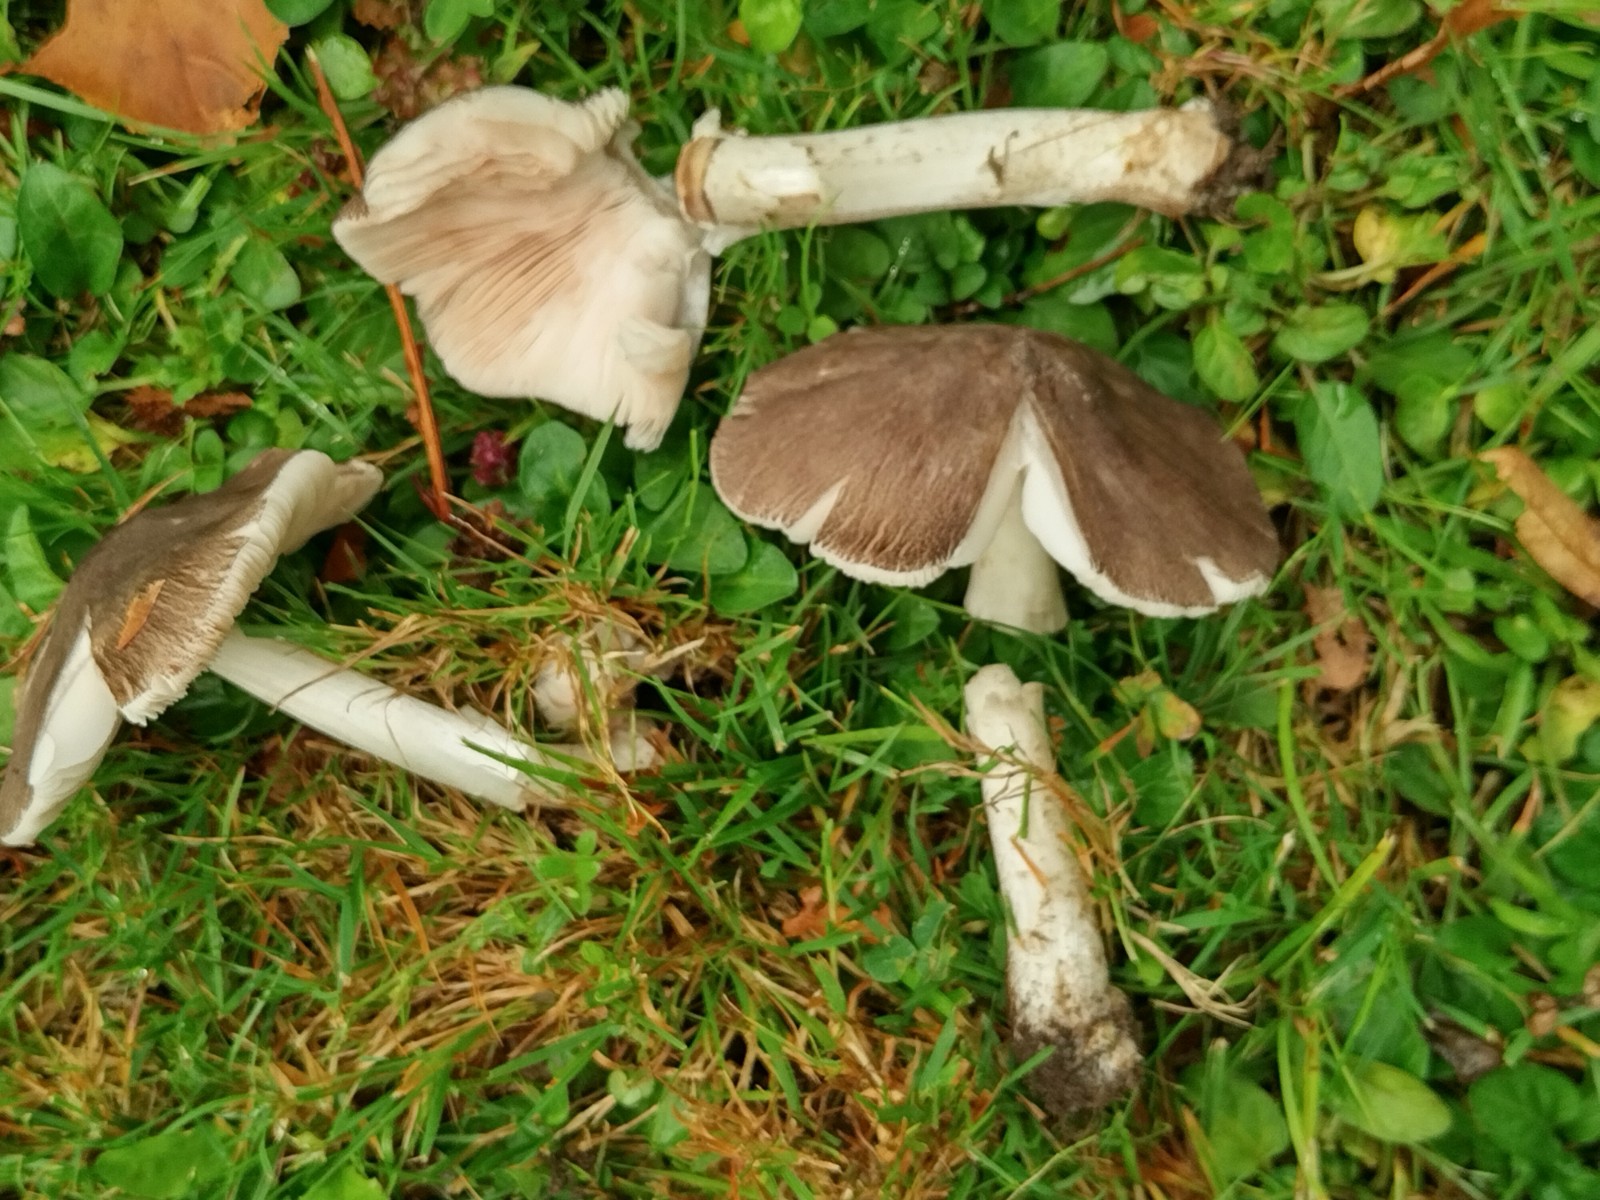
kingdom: Fungi
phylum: Basidiomycota
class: Agaricomycetes
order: Agaricales
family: Pluteaceae
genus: Pluteus
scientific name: Pluteus
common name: gråfibret skærmhat
